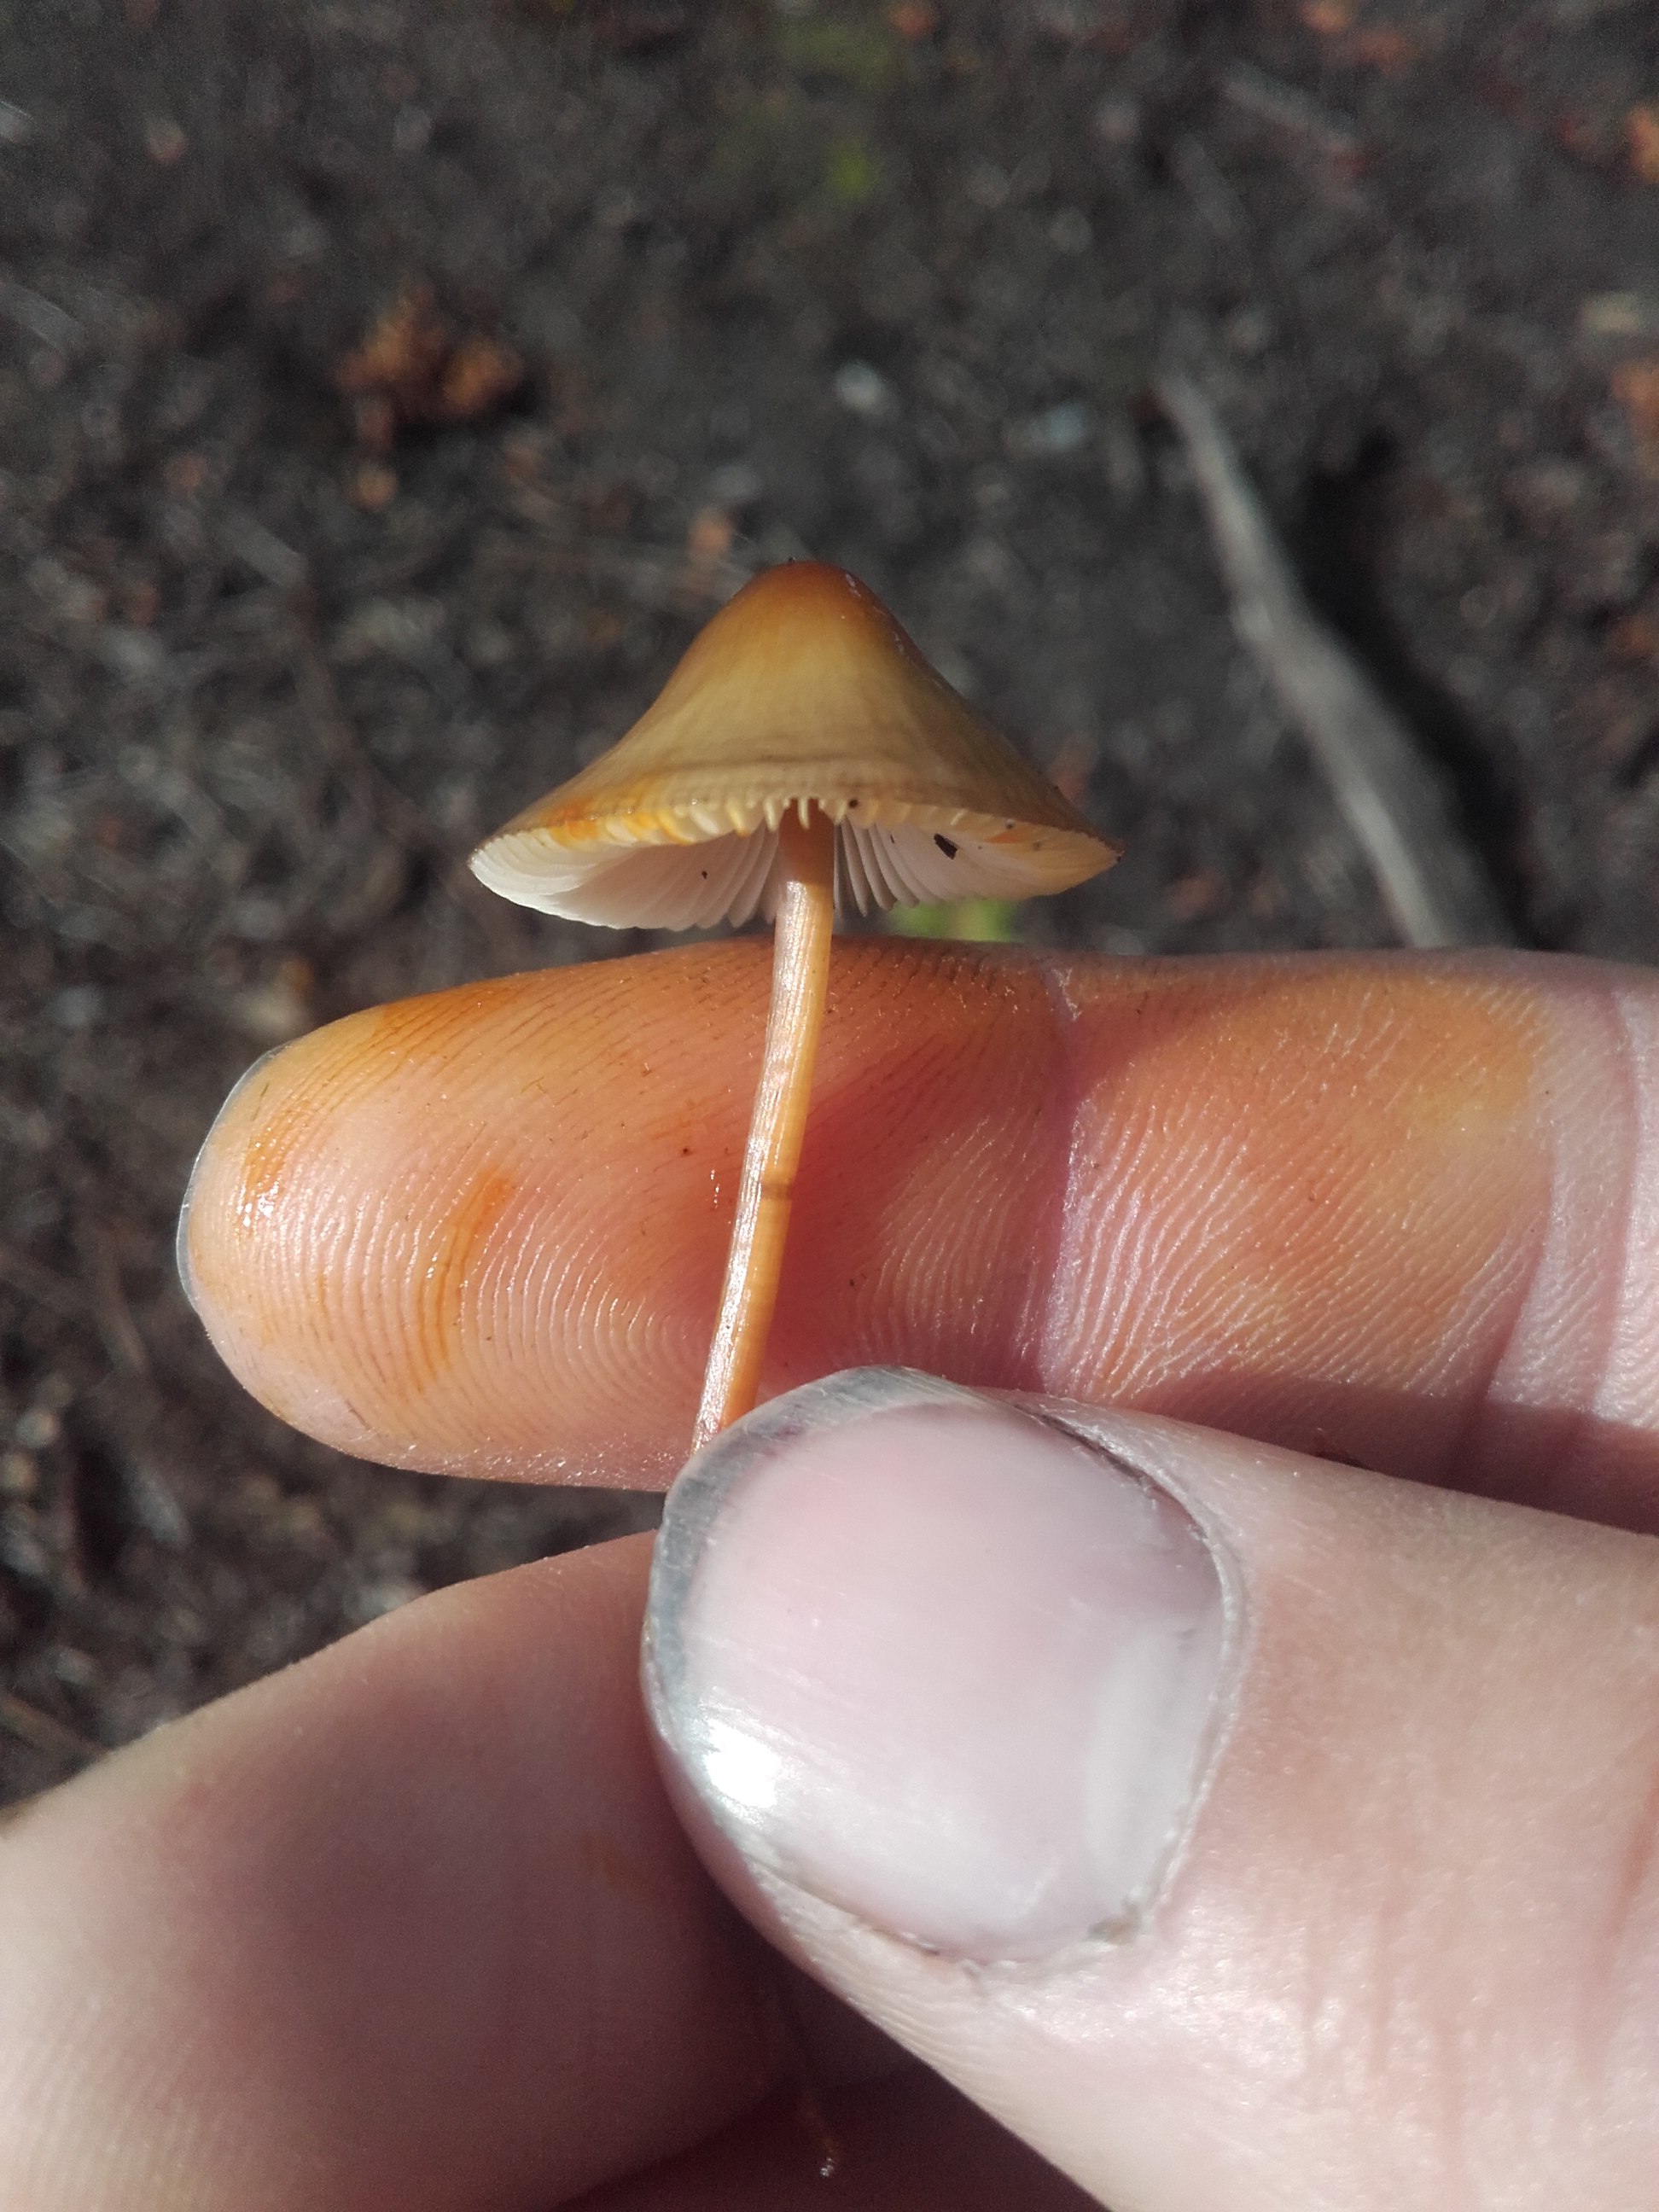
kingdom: Fungi
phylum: Basidiomycota
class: Agaricomycetes
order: Agaricales
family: Mycenaceae
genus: Mycena
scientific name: Mycena crocata
